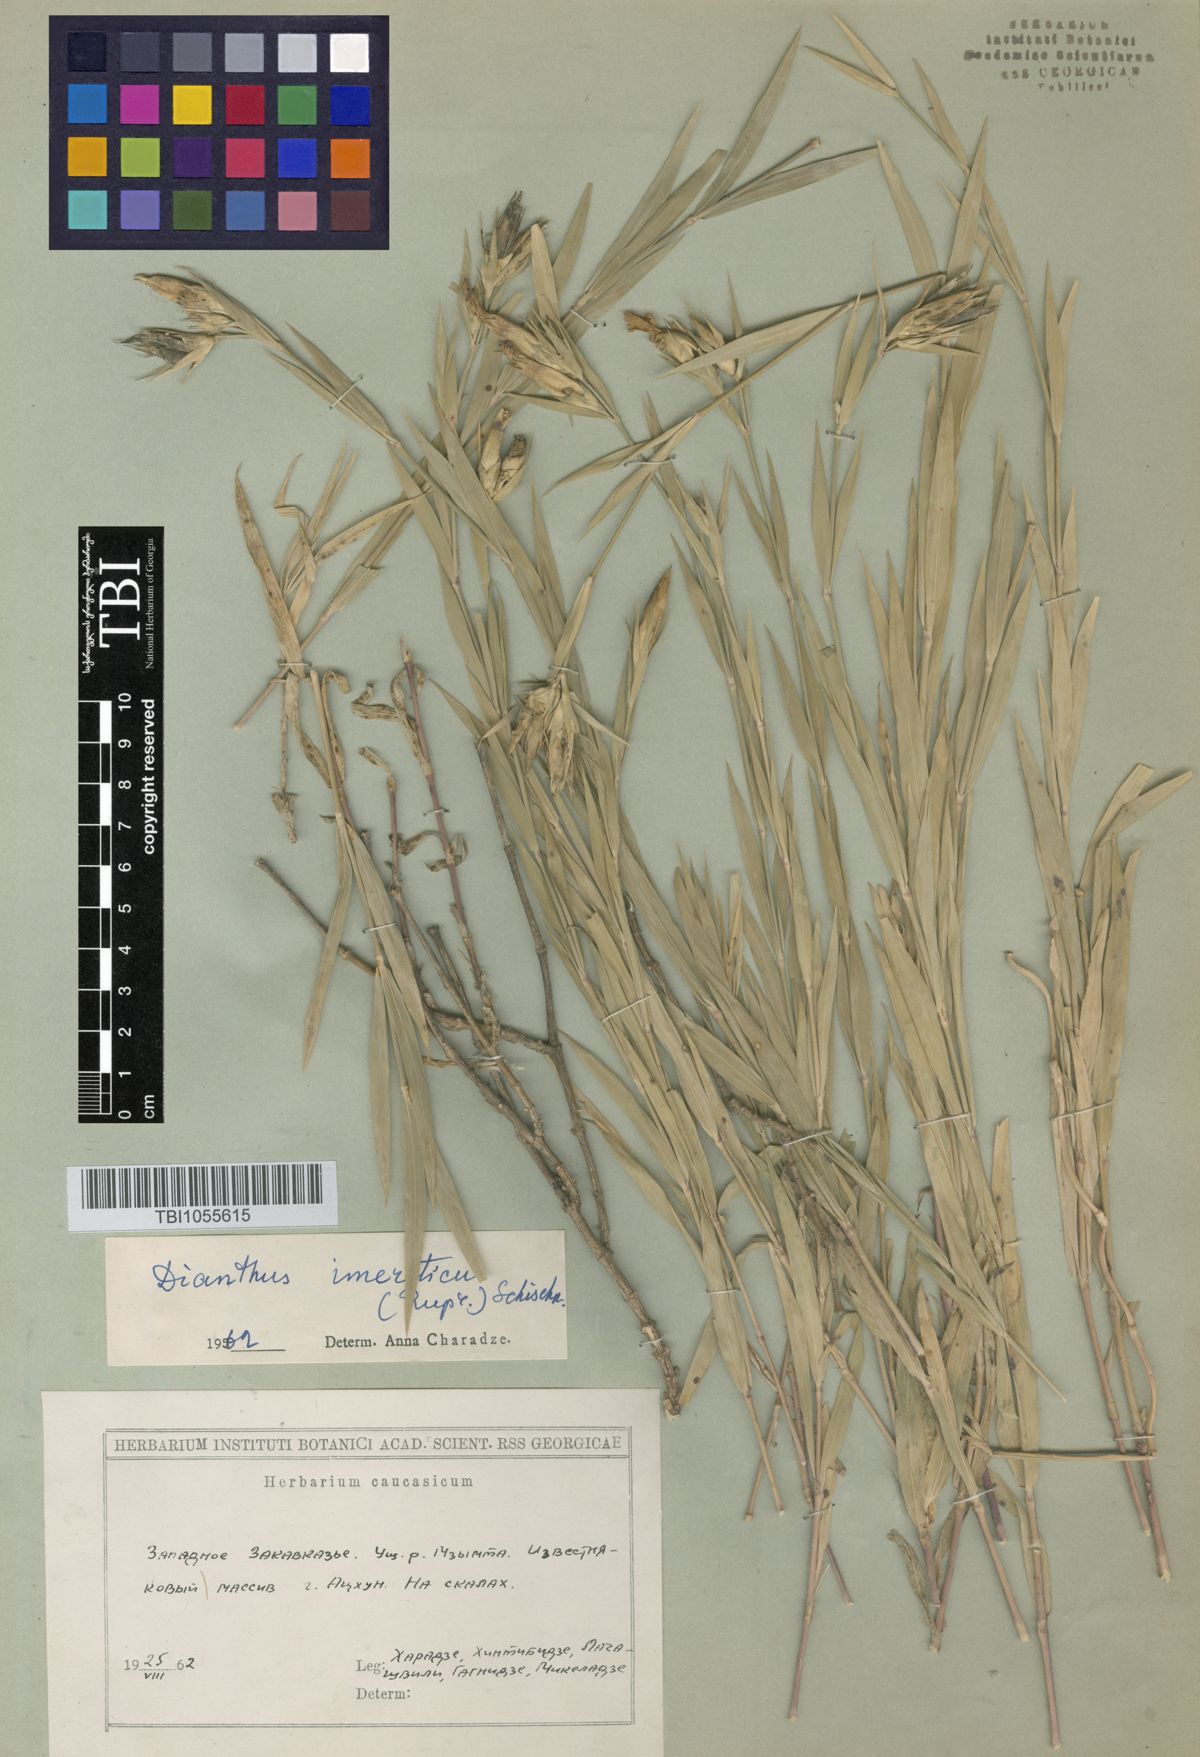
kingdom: Plantae
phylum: Tracheophyta
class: Magnoliopsida
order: Caryophyllales
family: Caryophyllaceae
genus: Dianthus
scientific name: Dianthus imereticus
